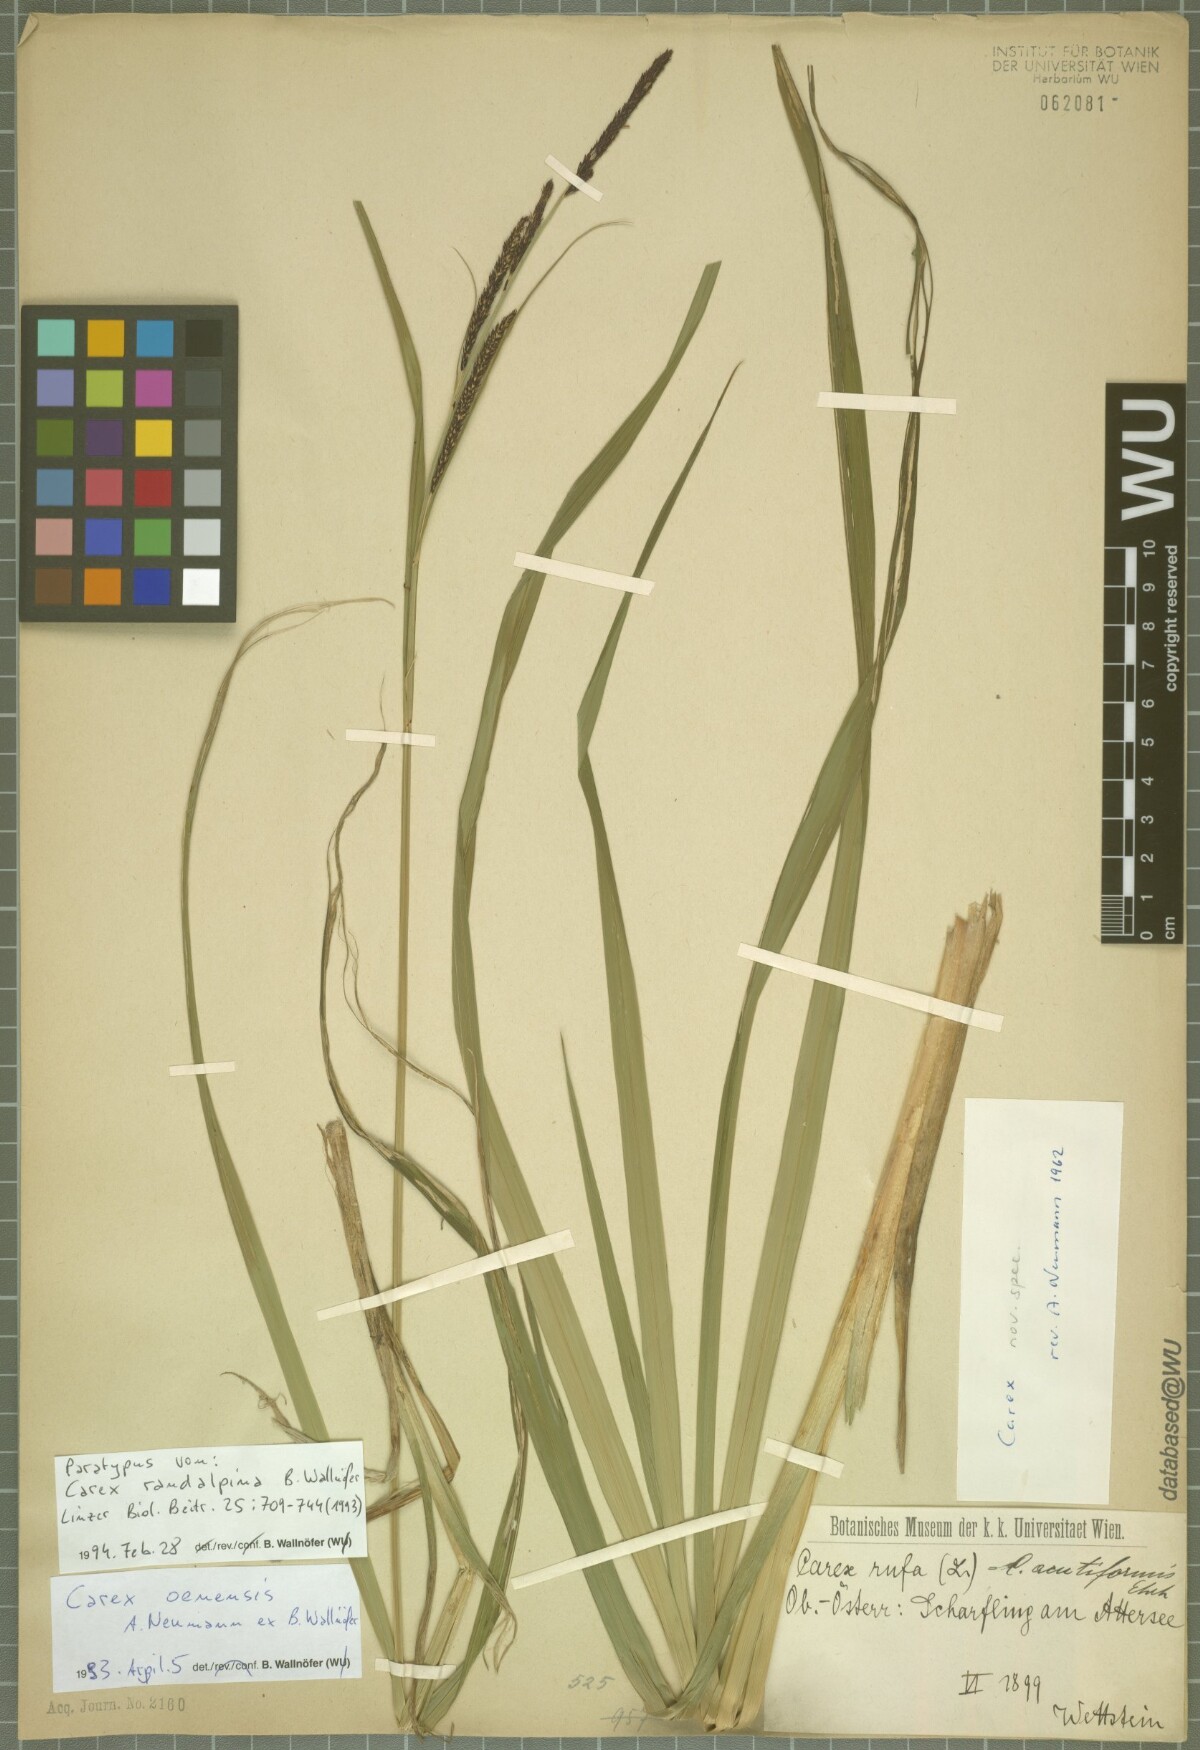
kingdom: Plantae
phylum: Tracheophyta
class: Liliopsida
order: Poales
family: Cyperaceae
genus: Carex
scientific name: Carex randalpina
